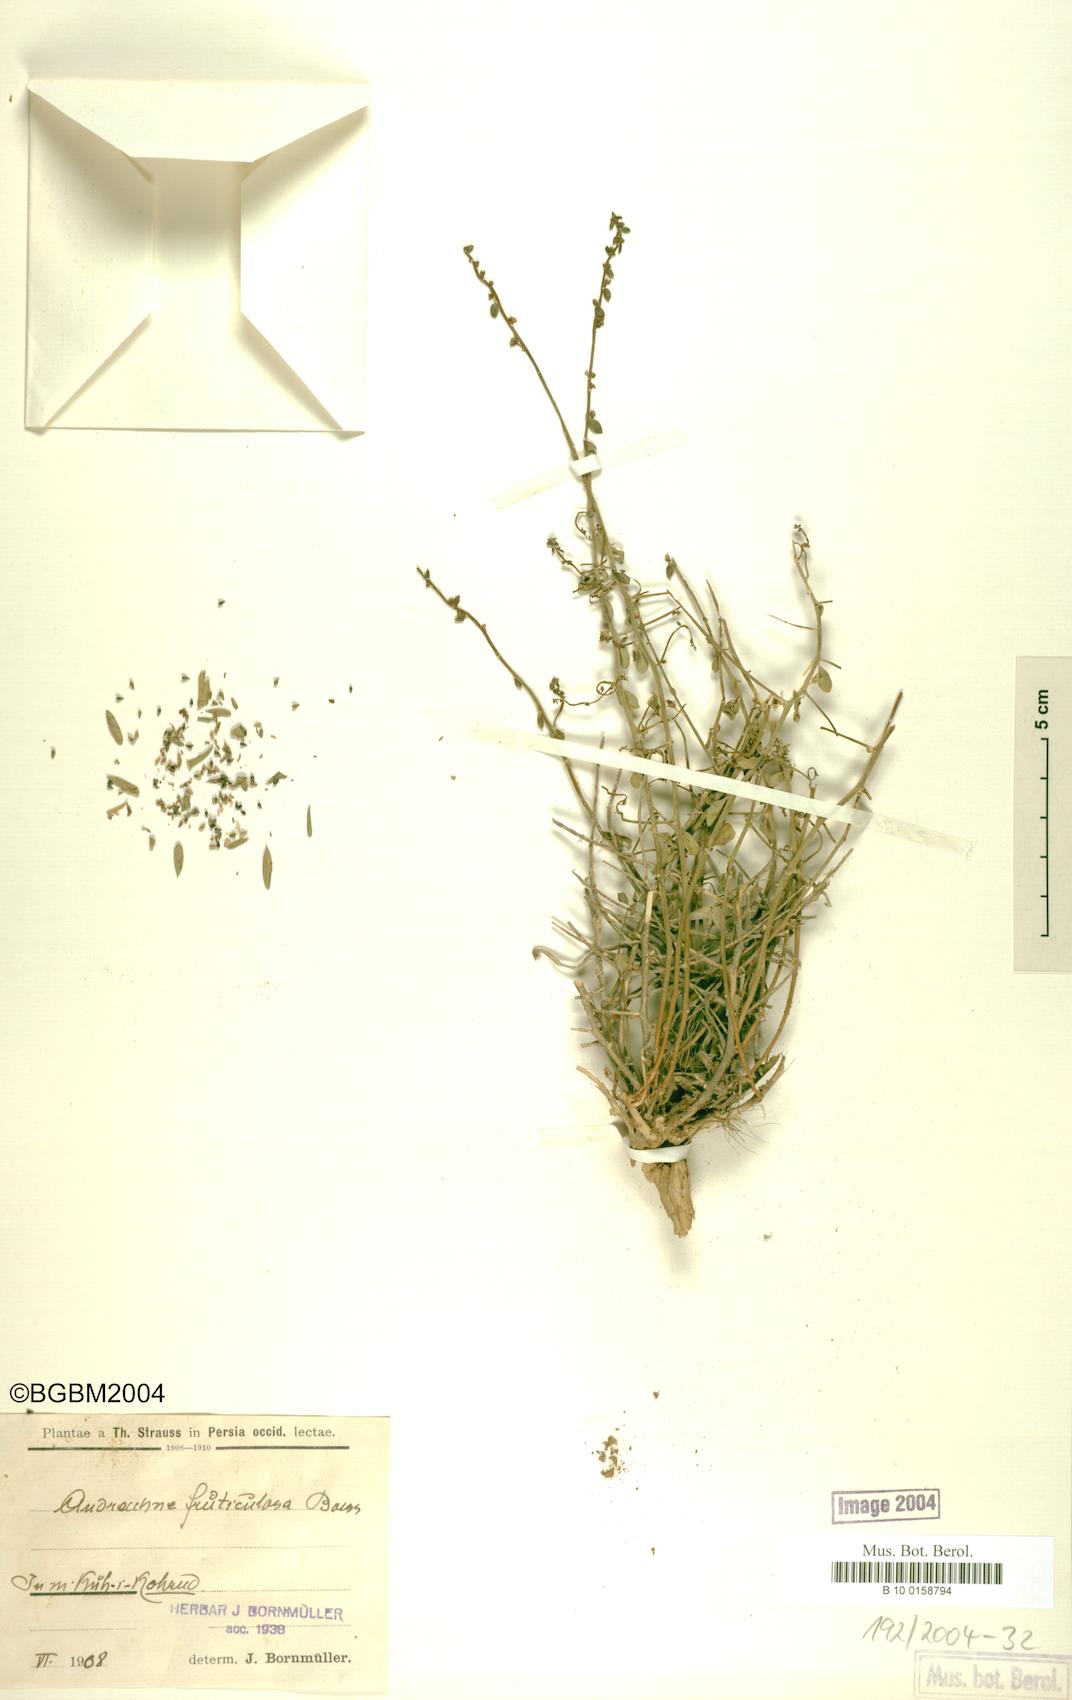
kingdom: Plantae
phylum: Tracheophyta
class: Magnoliopsida
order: Malpighiales
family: Phyllanthaceae
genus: Andrachne
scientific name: Andrachne fruticulosa
